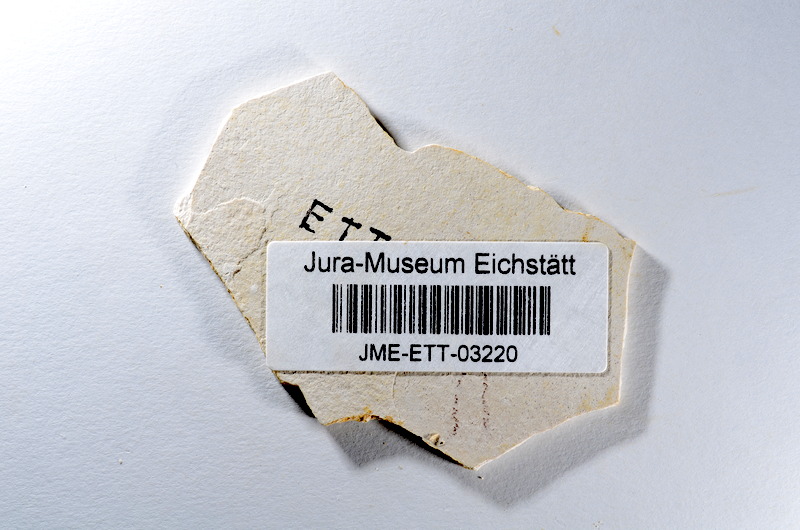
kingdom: Animalia
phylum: Chordata
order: Salmoniformes
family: Orthogonikleithridae
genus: Orthogonikleithrus
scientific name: Orthogonikleithrus hoelli
